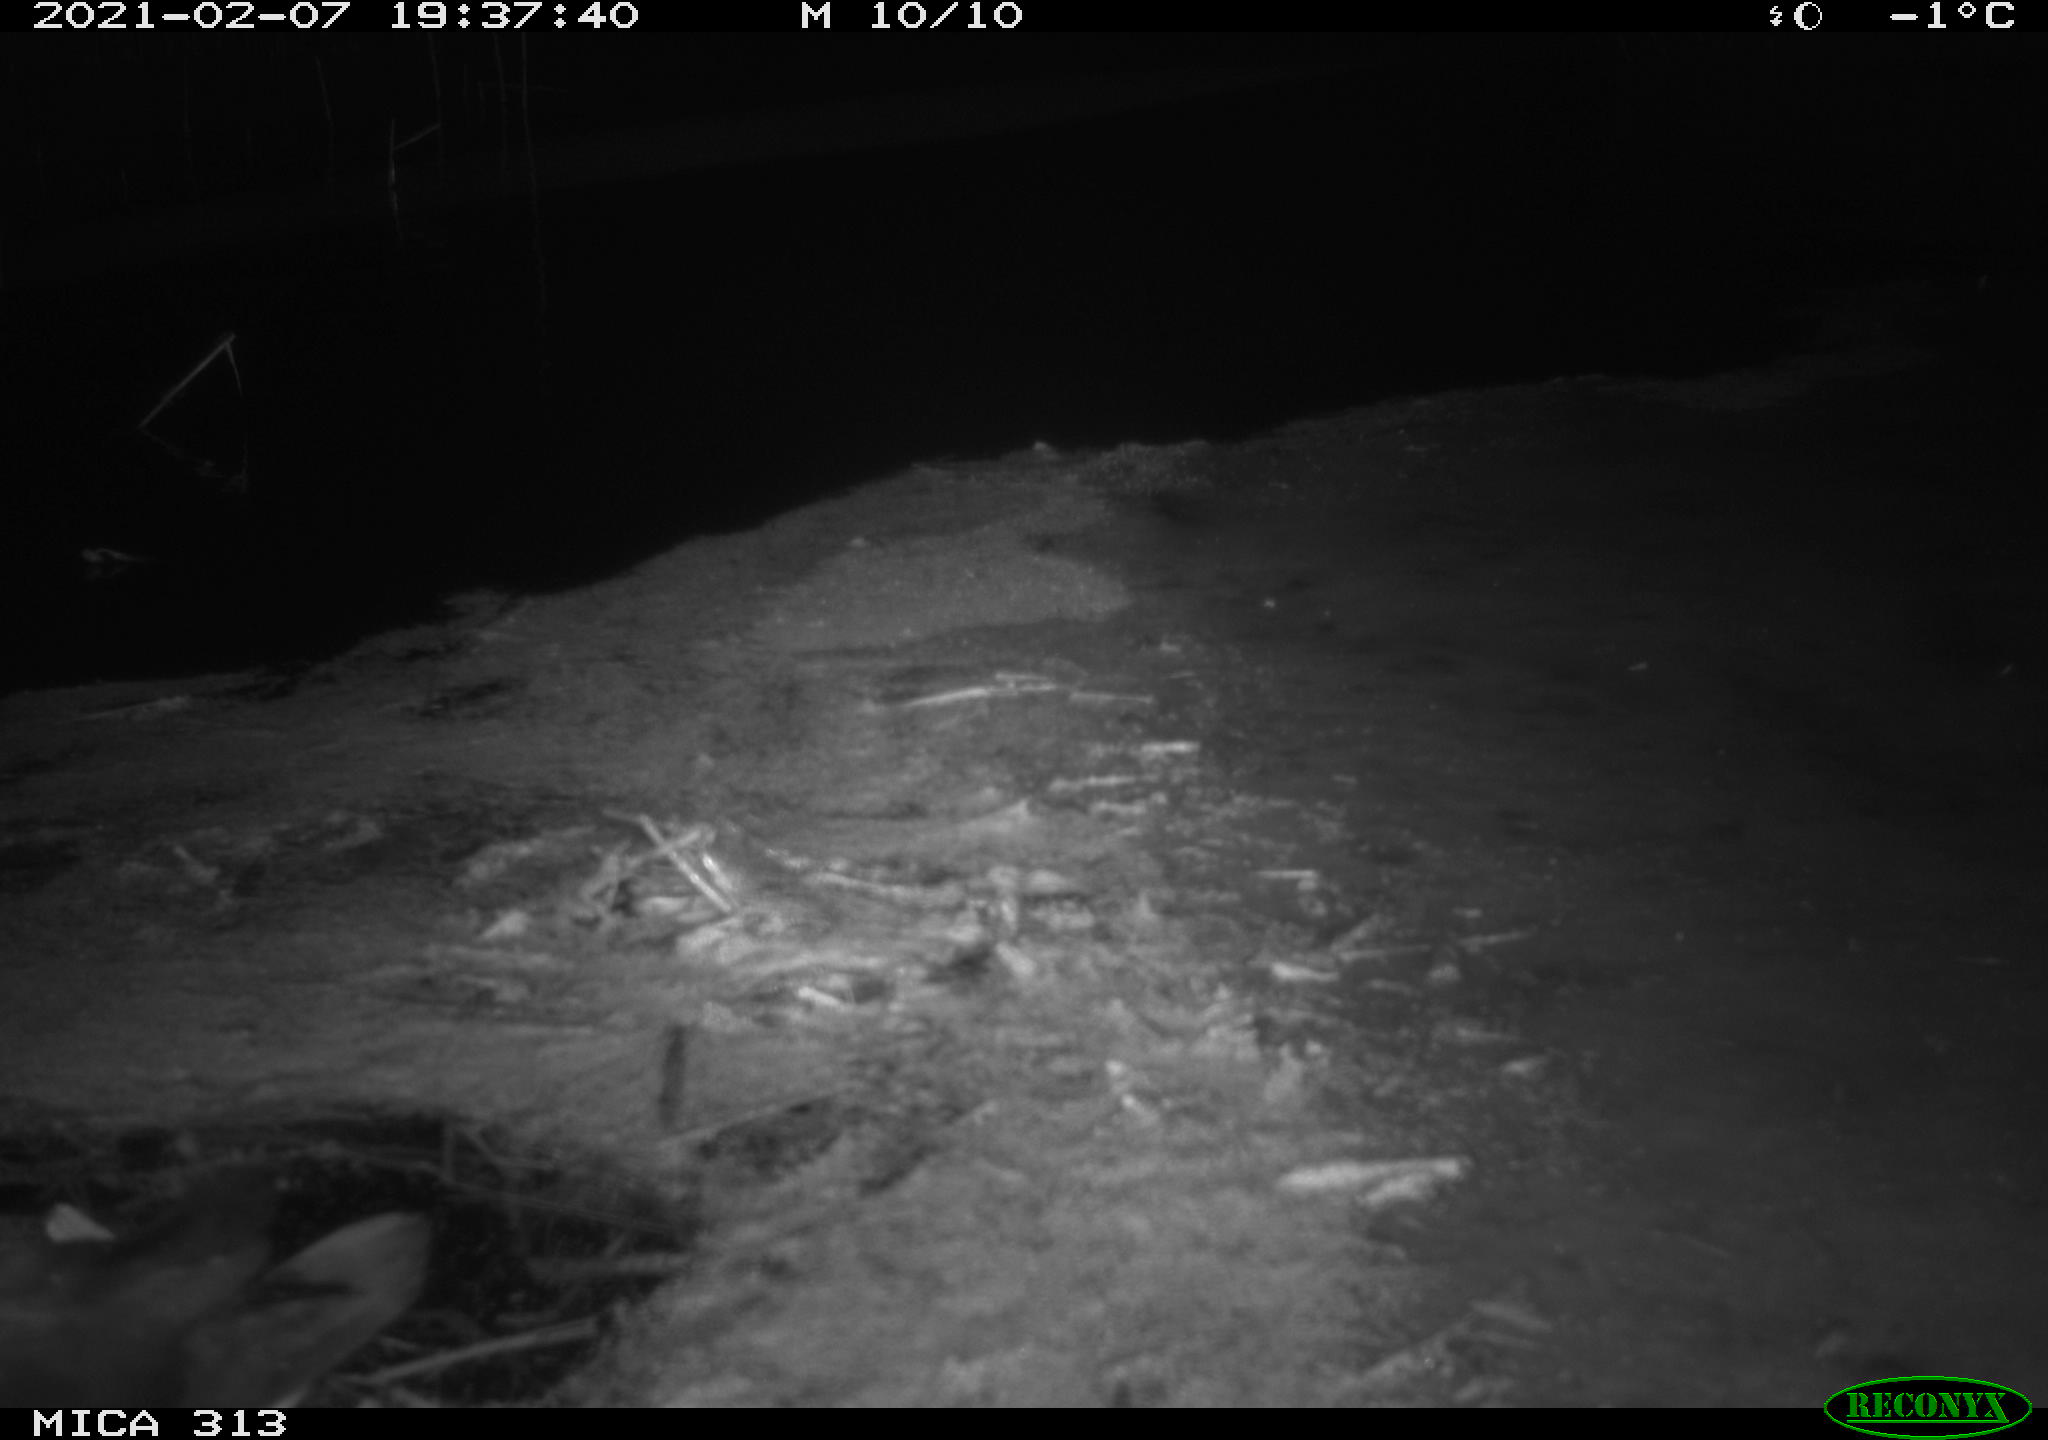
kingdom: Animalia
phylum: Chordata
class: Aves
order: Gruiformes
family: Rallidae
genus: Gallinula
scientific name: Gallinula chloropus
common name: Common moorhen
